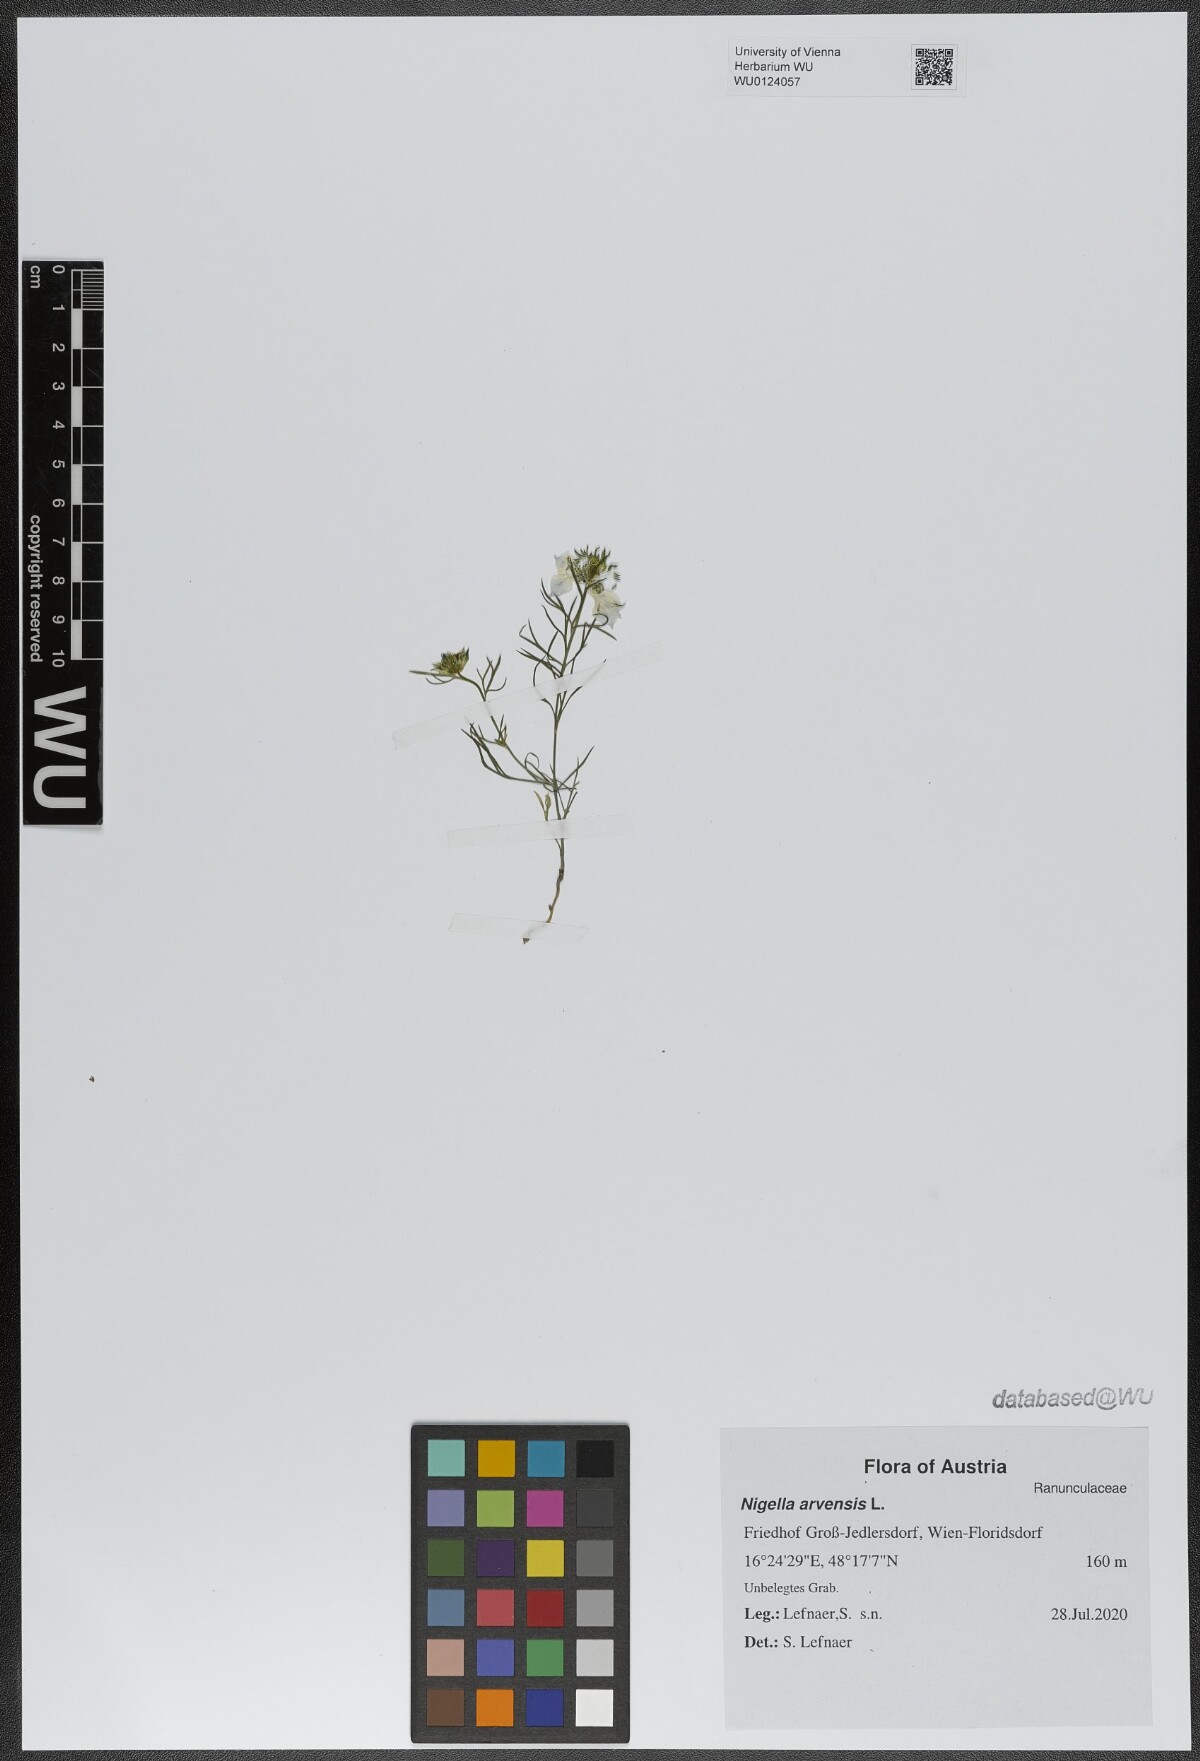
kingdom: Plantae
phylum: Tracheophyta
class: Magnoliopsida
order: Ranunculales
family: Ranunculaceae
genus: Nigella
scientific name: Nigella arvensis
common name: Wild fennel-flower
